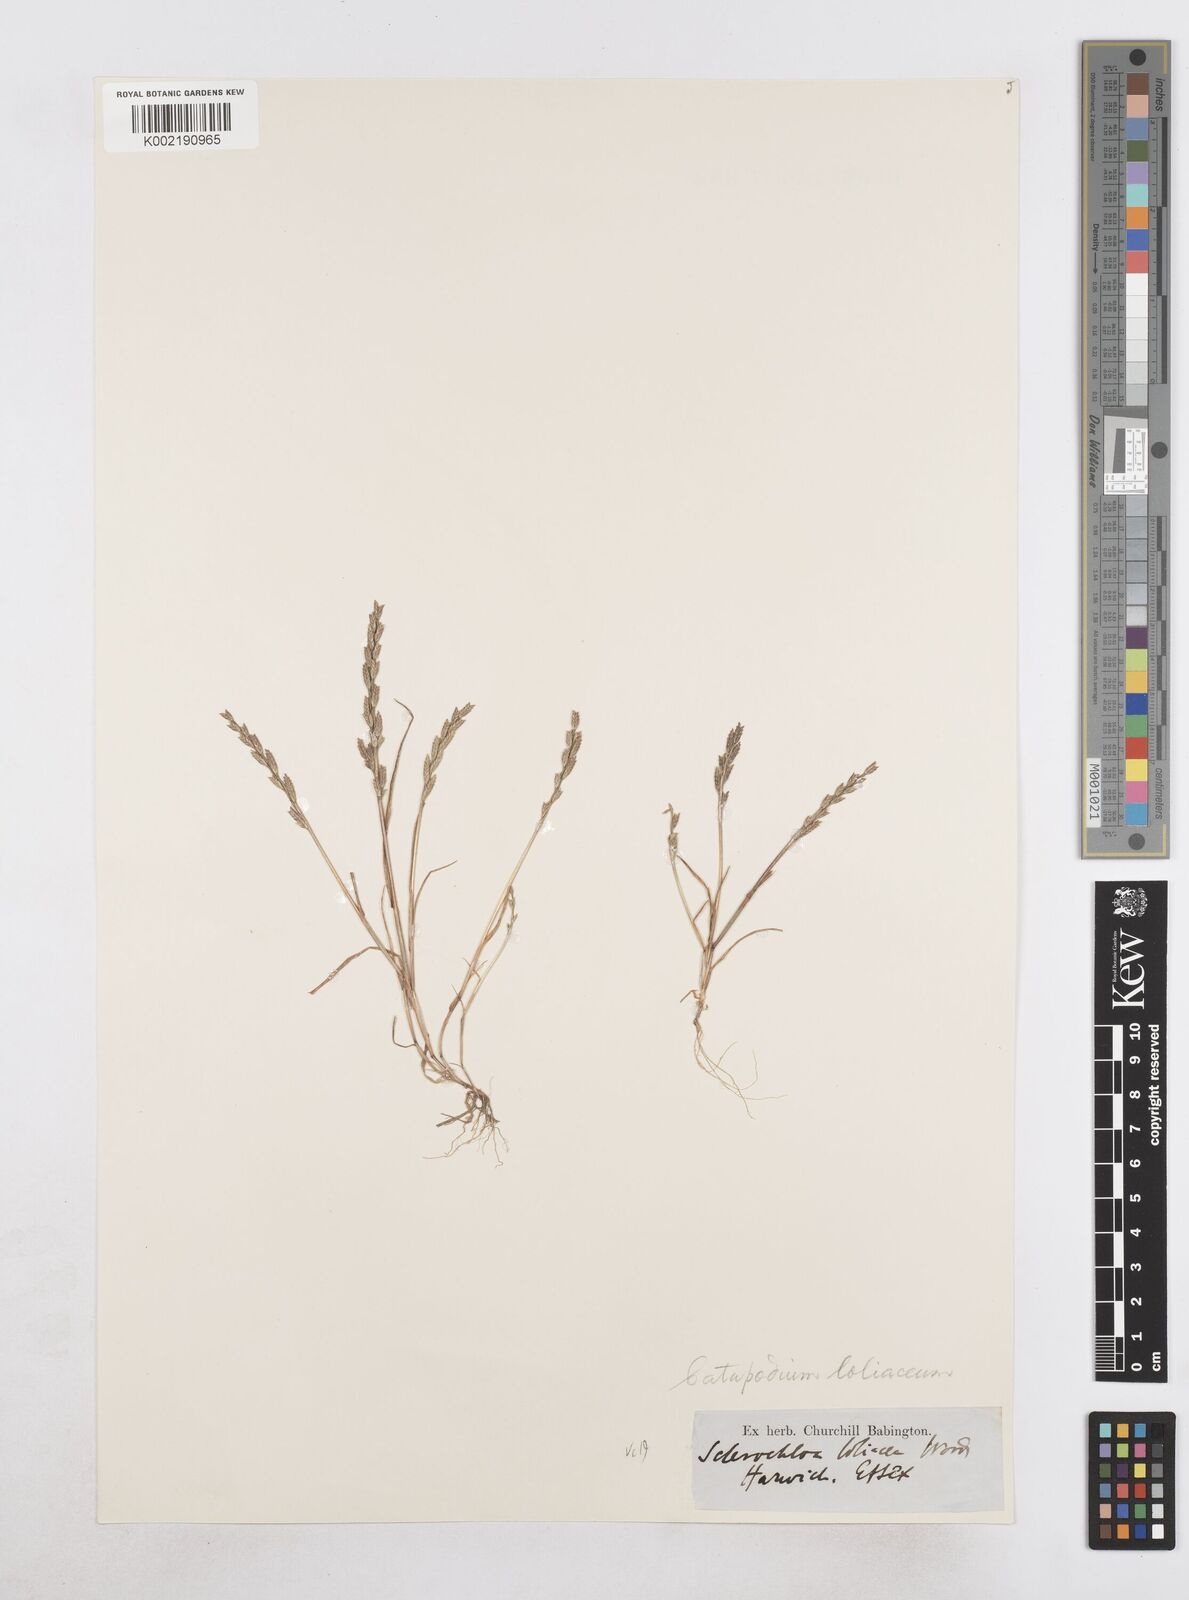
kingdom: Plantae
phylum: Tracheophyta
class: Liliopsida
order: Poales
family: Poaceae
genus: Catapodium
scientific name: Catapodium marinum
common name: Sea fern-grass
